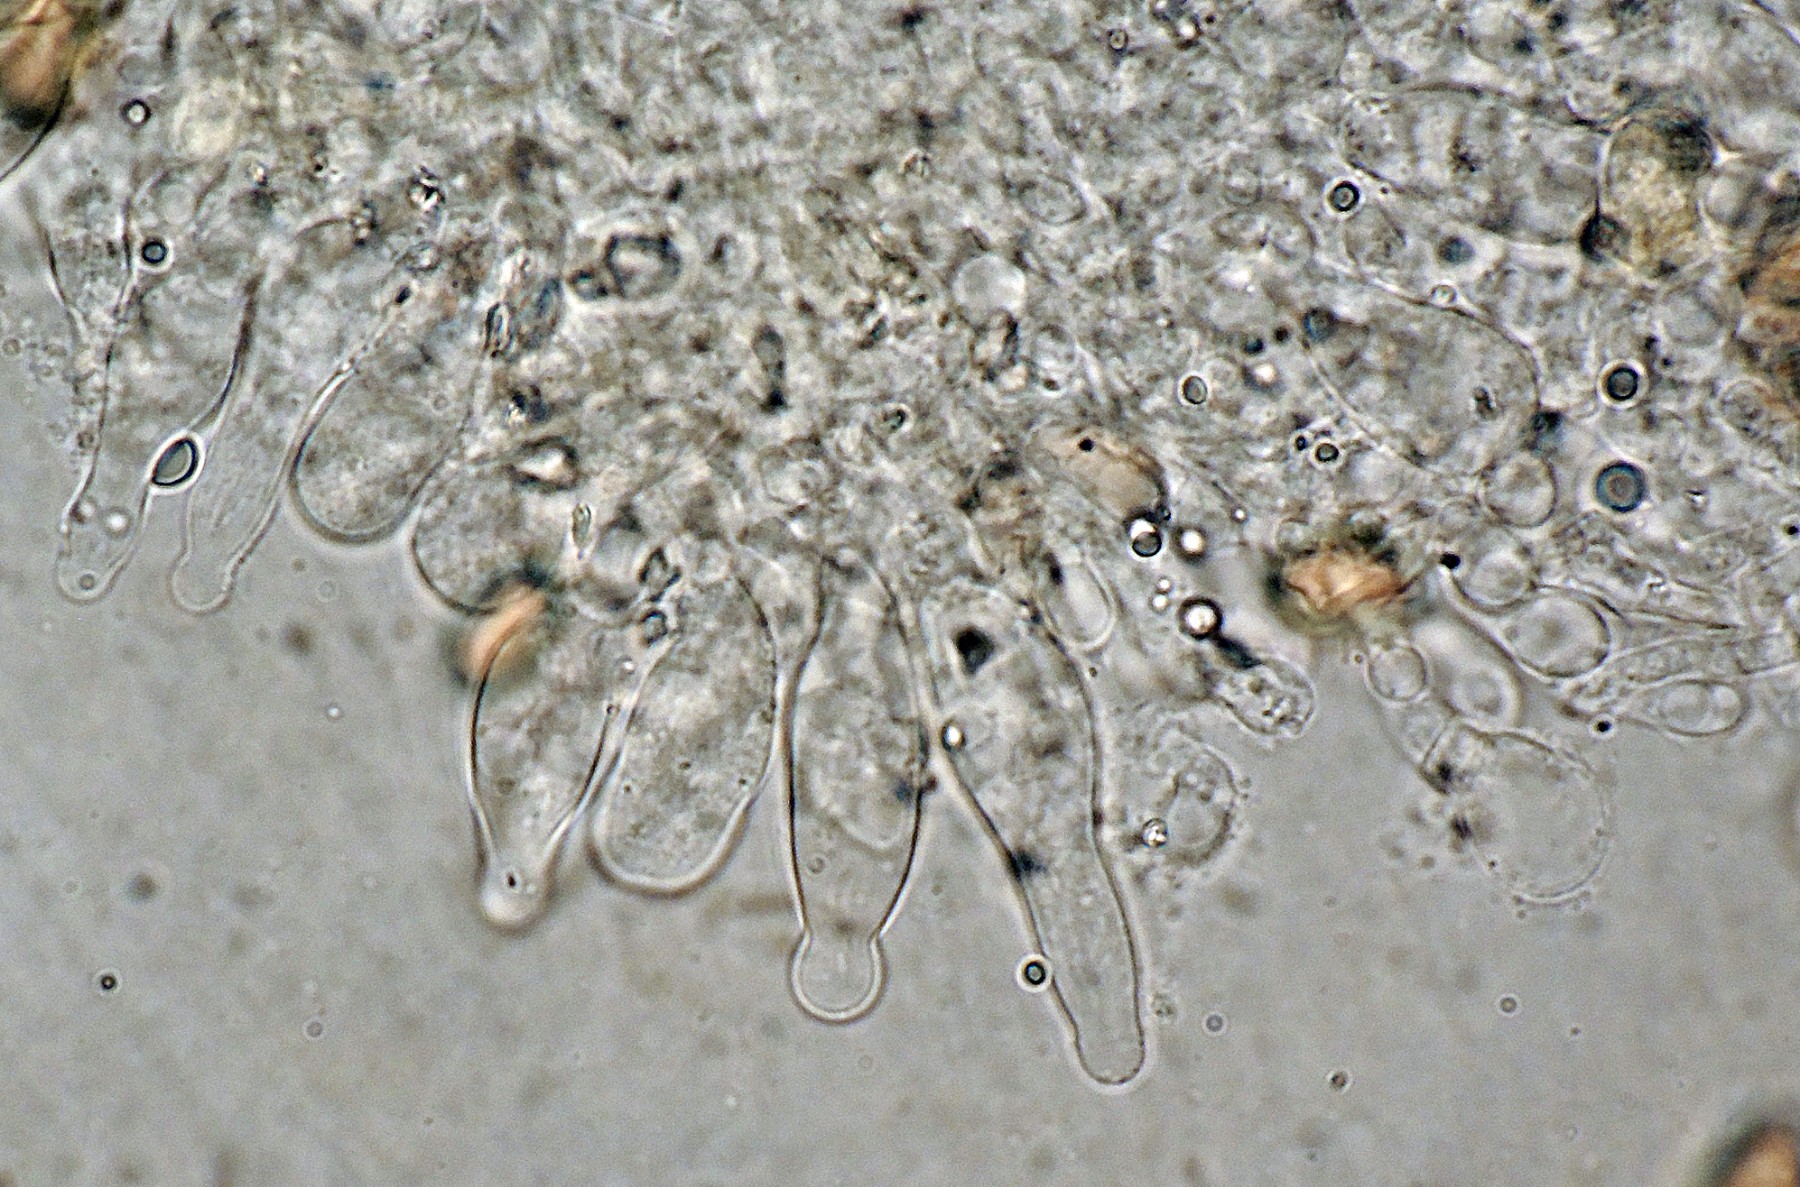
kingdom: Fungi
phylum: Basidiomycota
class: Agaricomycetes
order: Agaricales
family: Strophariaceae
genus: Agrocybe
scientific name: Agrocybe fimicola
